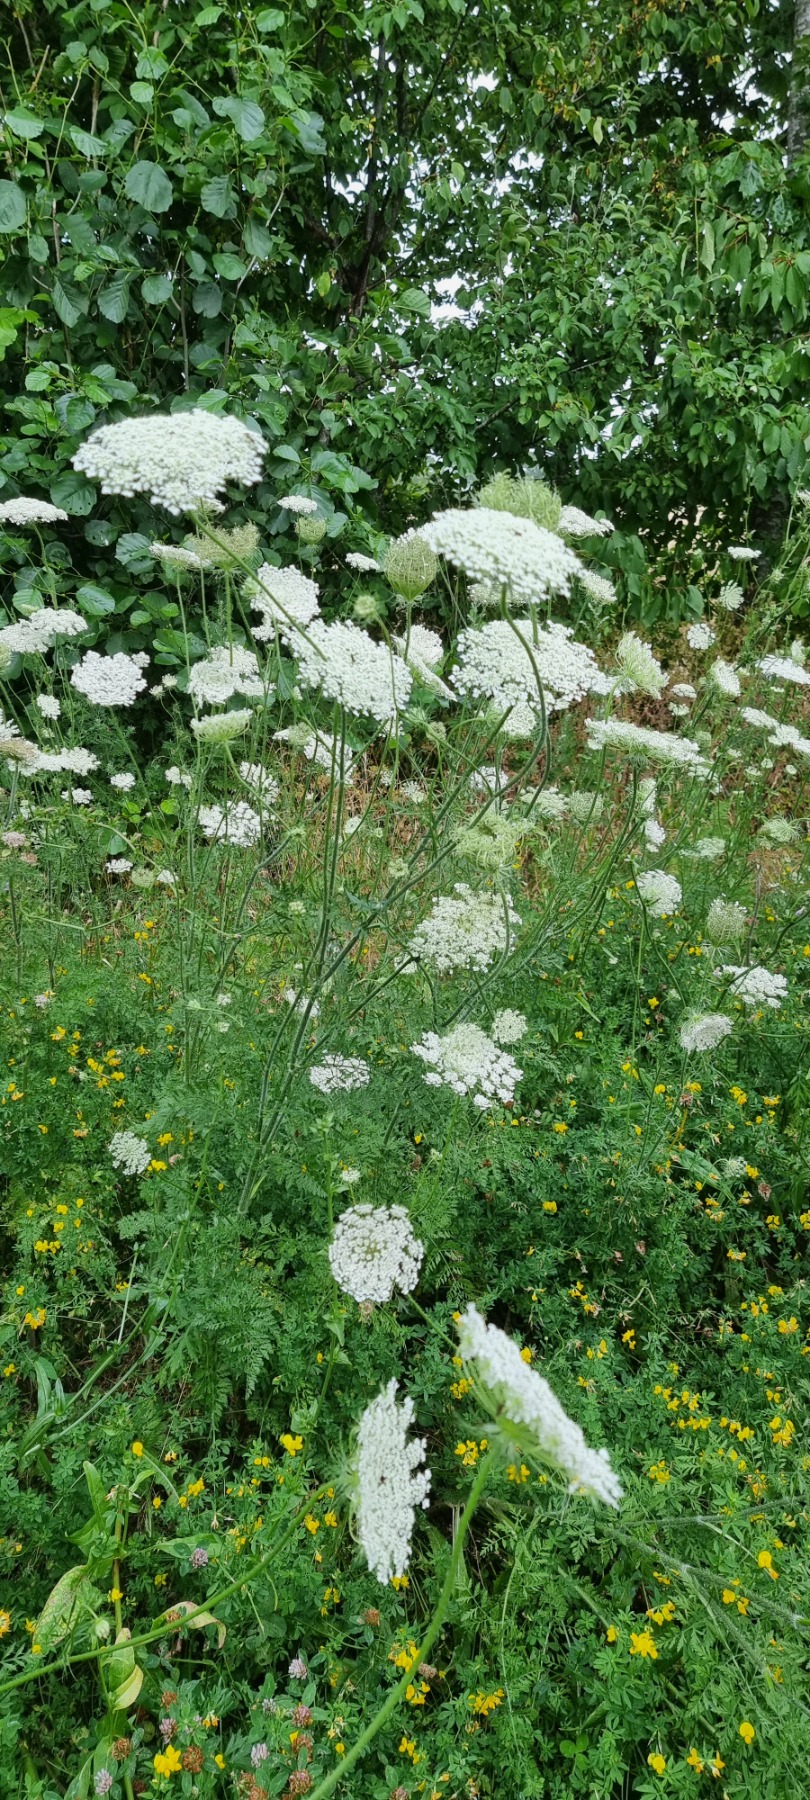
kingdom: Plantae
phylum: Tracheophyta
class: Magnoliopsida
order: Apiales
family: Apiaceae
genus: Daucus
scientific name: Daucus carota
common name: Vild gulerod
